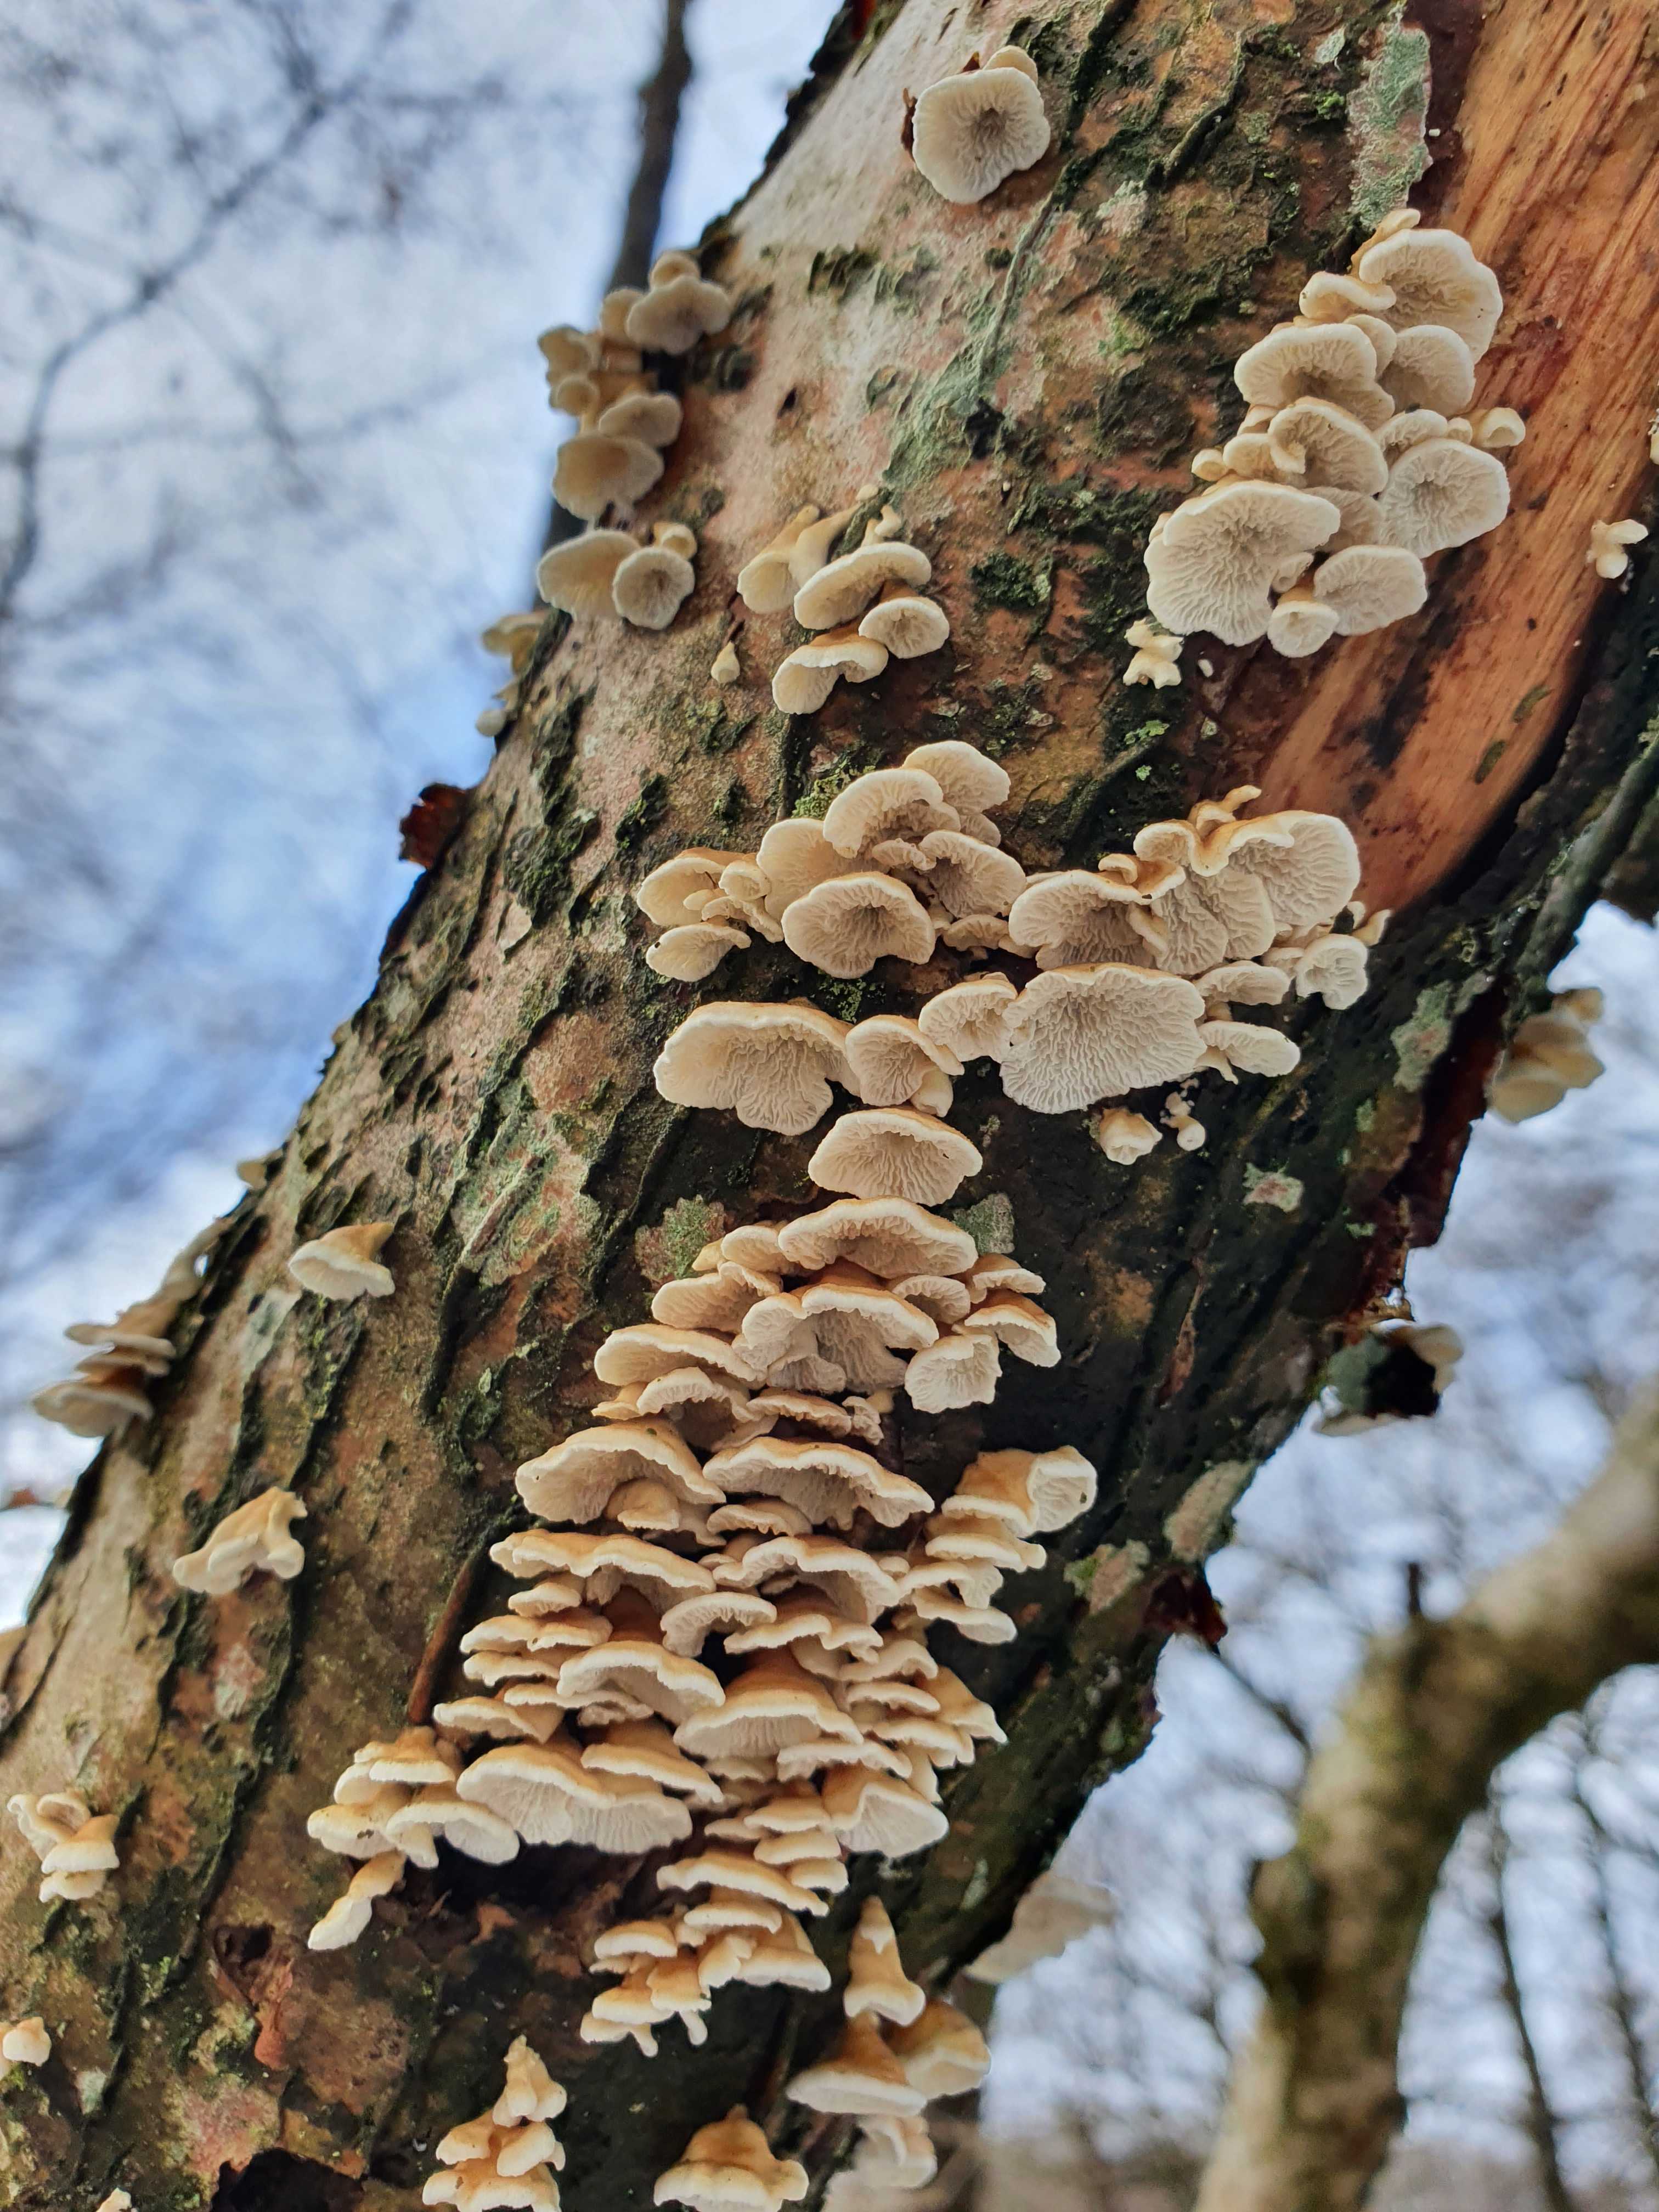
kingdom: Fungi
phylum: Basidiomycota
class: Agaricomycetes
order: Amylocorticiales
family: Amylocorticiaceae
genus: Plicaturopsis
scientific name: Plicaturopsis crispa
